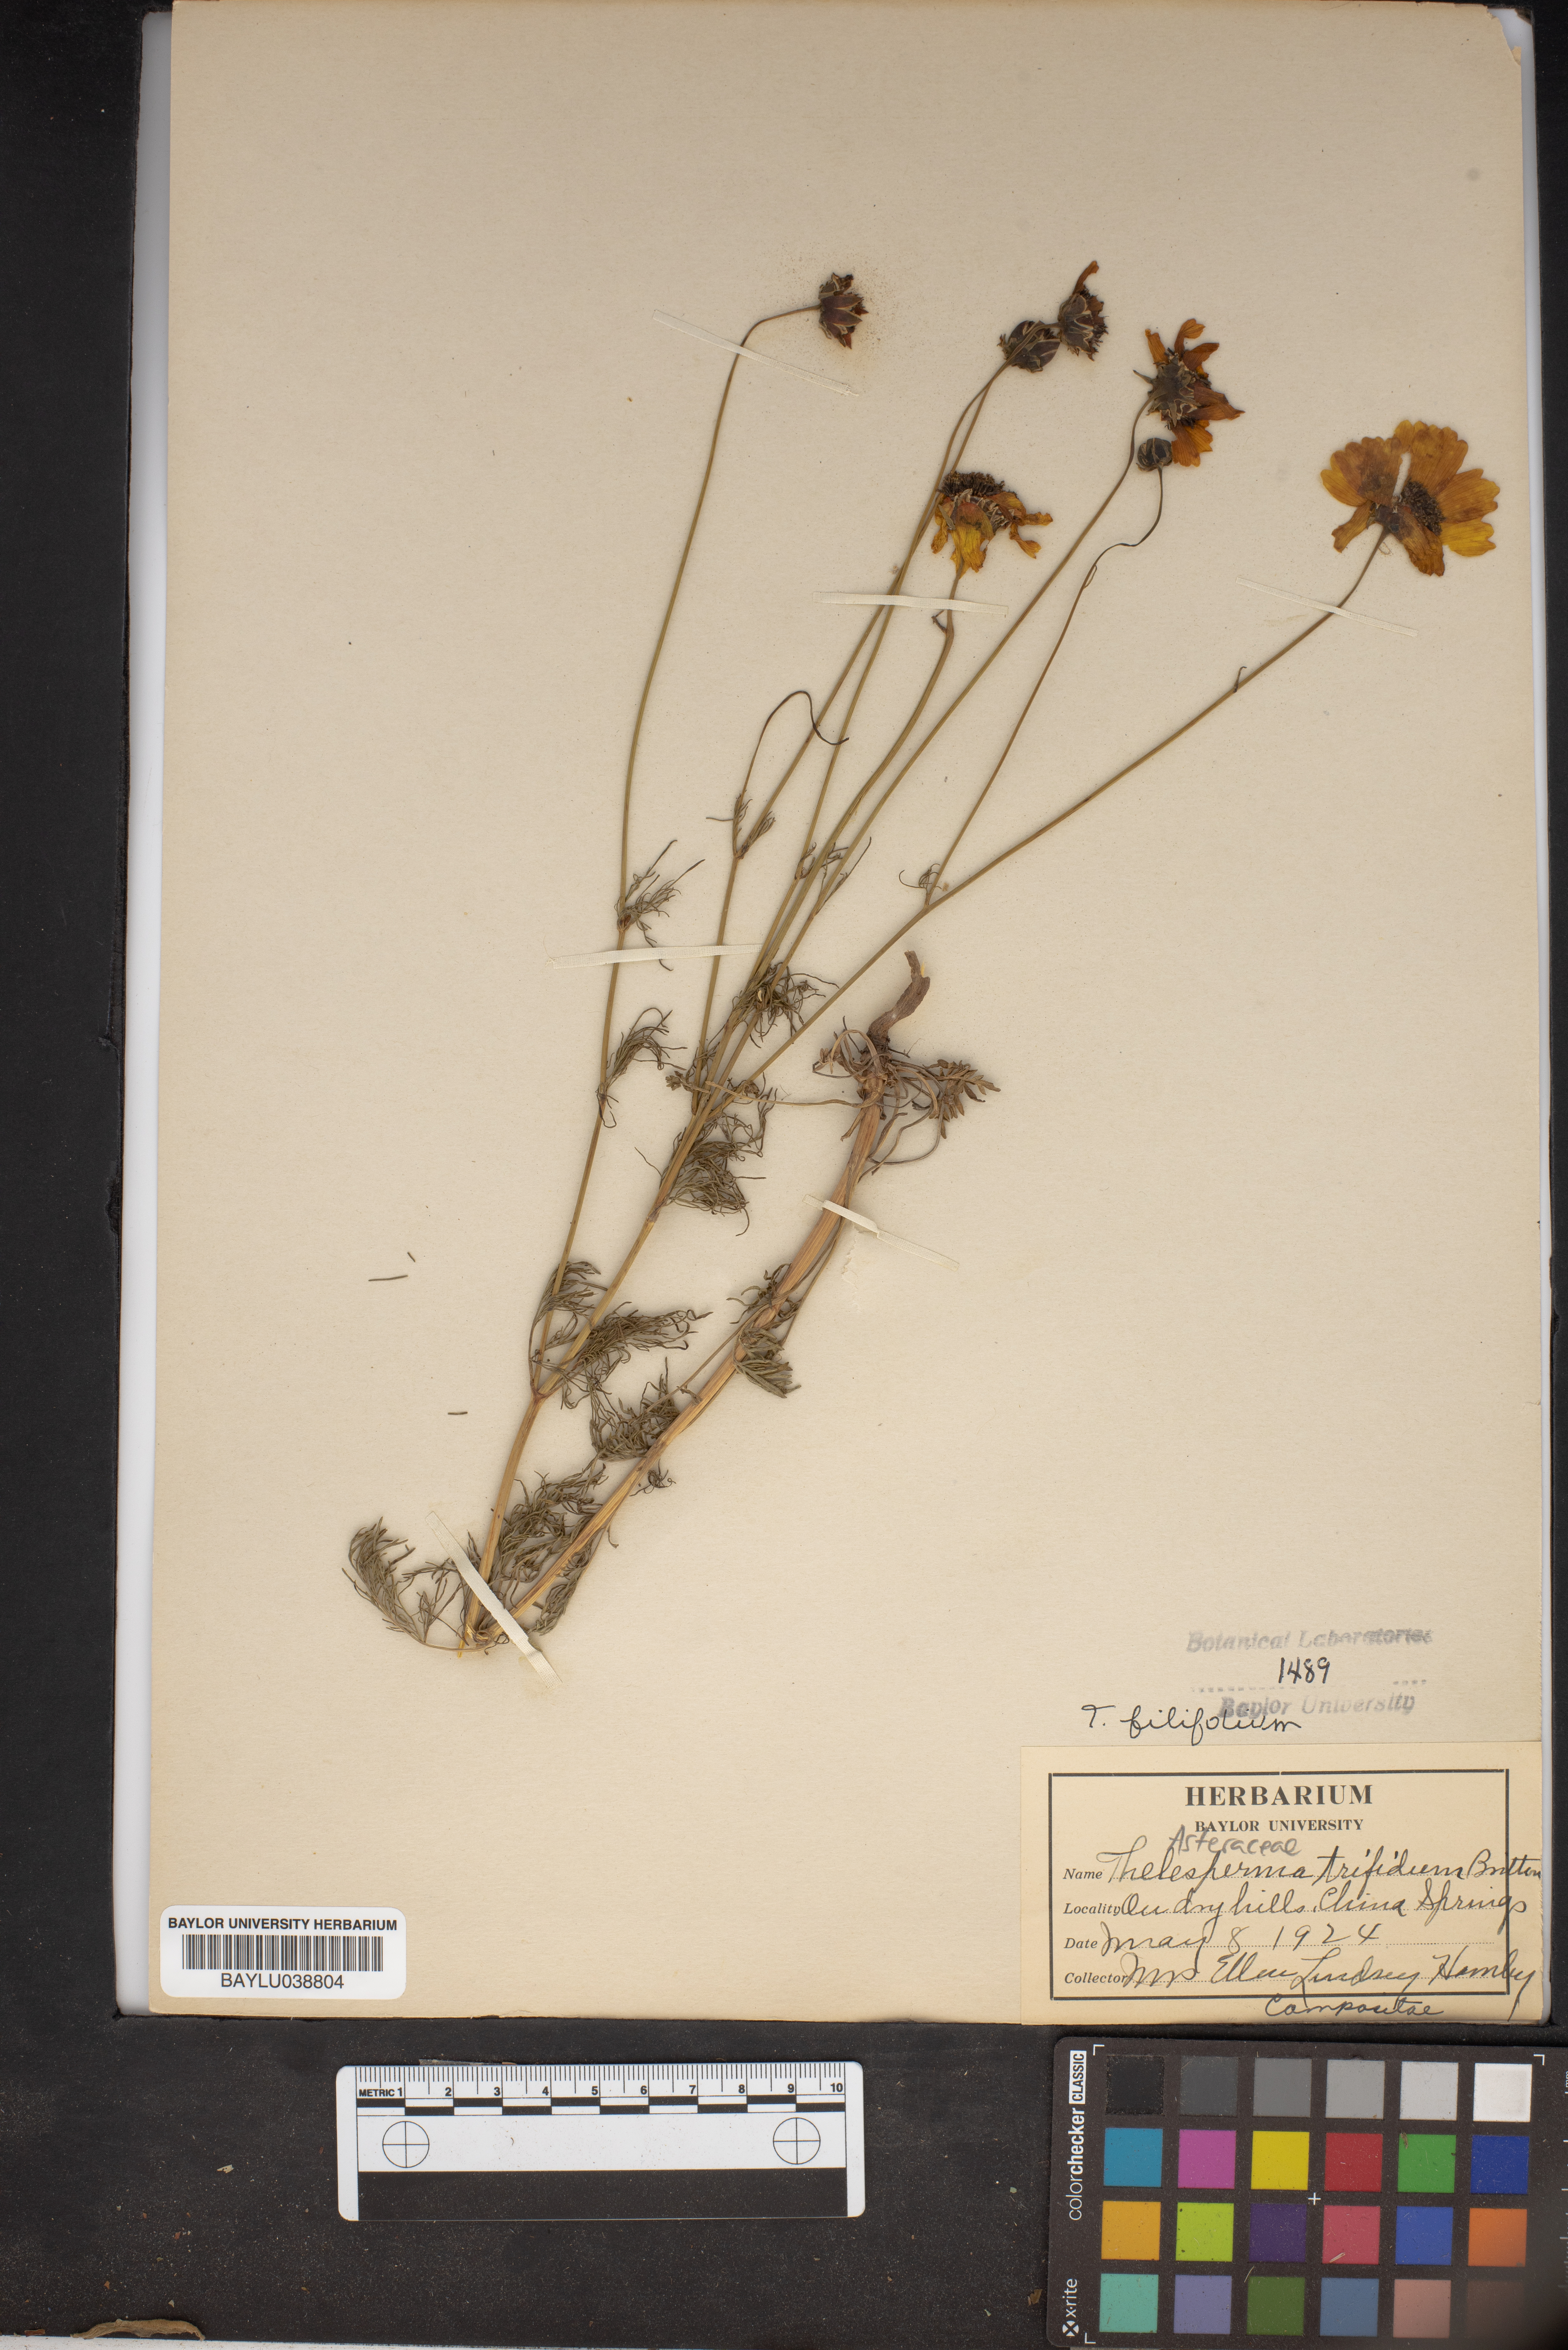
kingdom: Plantae
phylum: Tracheophyta
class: Magnoliopsida
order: Asterales
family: Asteraceae
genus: Thelesperma
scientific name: Thelesperma filifolium
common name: Stiff greenthread
